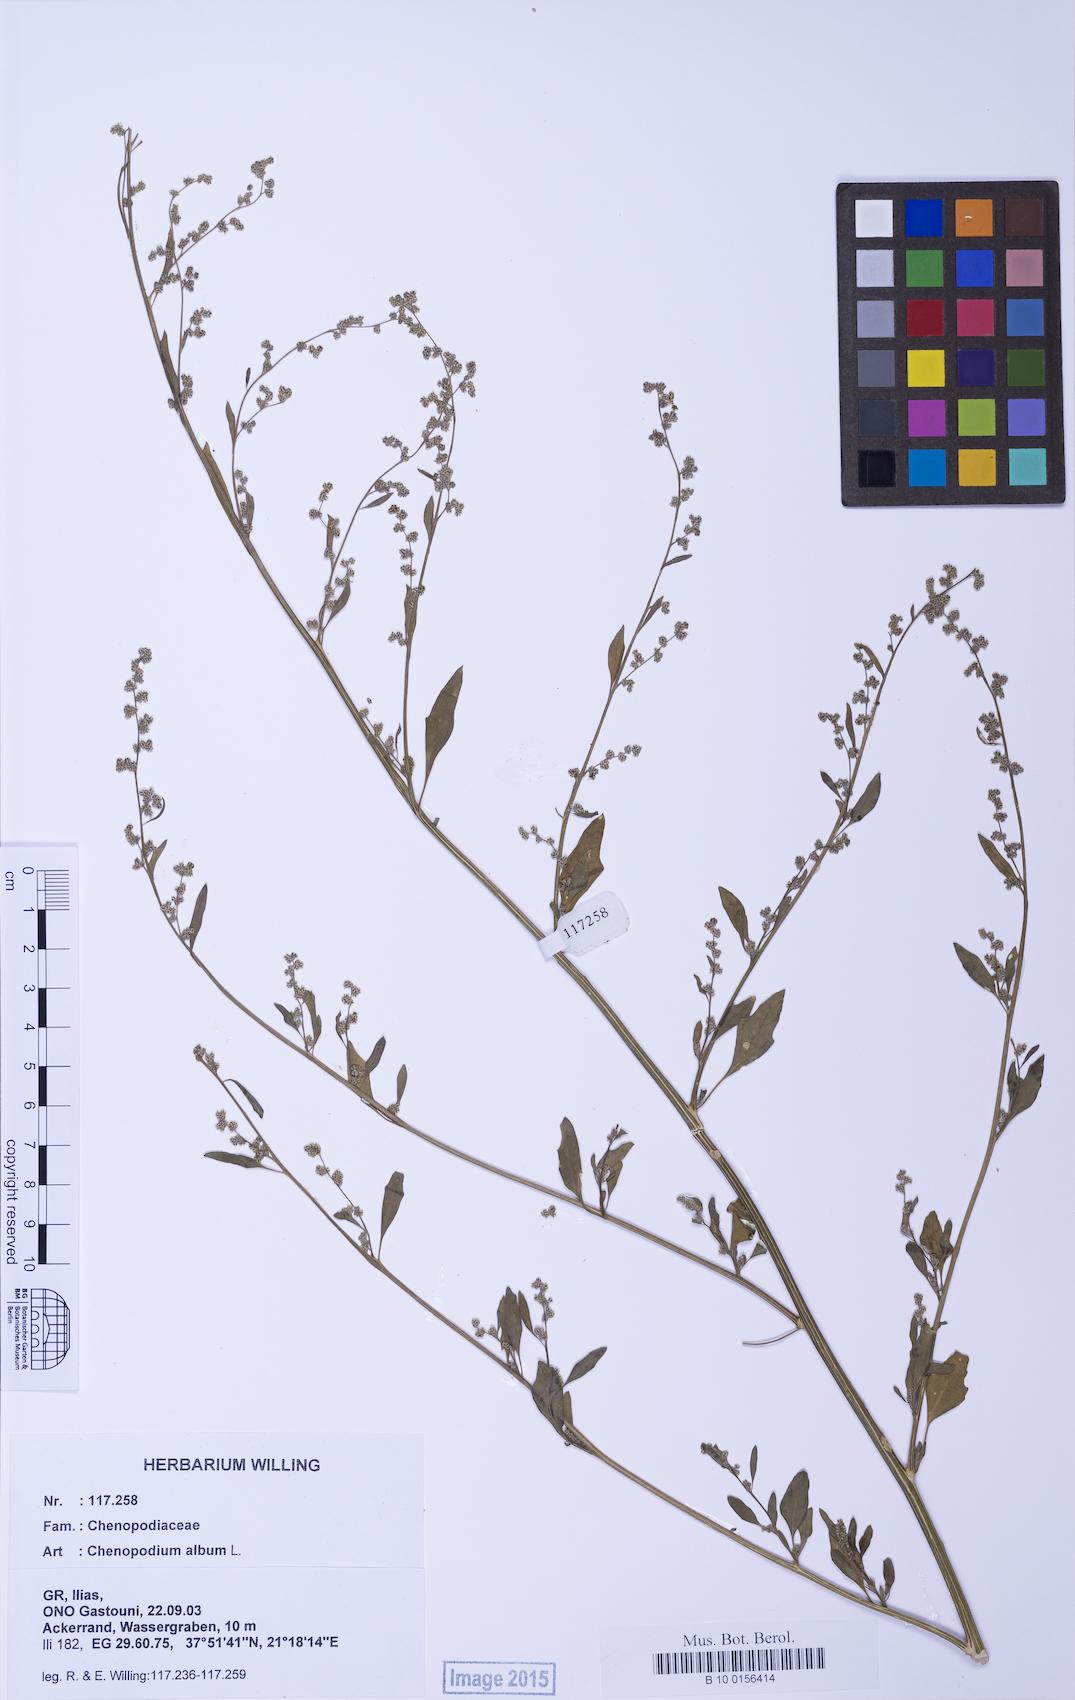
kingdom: Plantae
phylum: Tracheophyta
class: Magnoliopsida
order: Caryophyllales
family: Amaranthaceae
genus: Chenopodium
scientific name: Chenopodium album
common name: Fat-hen
